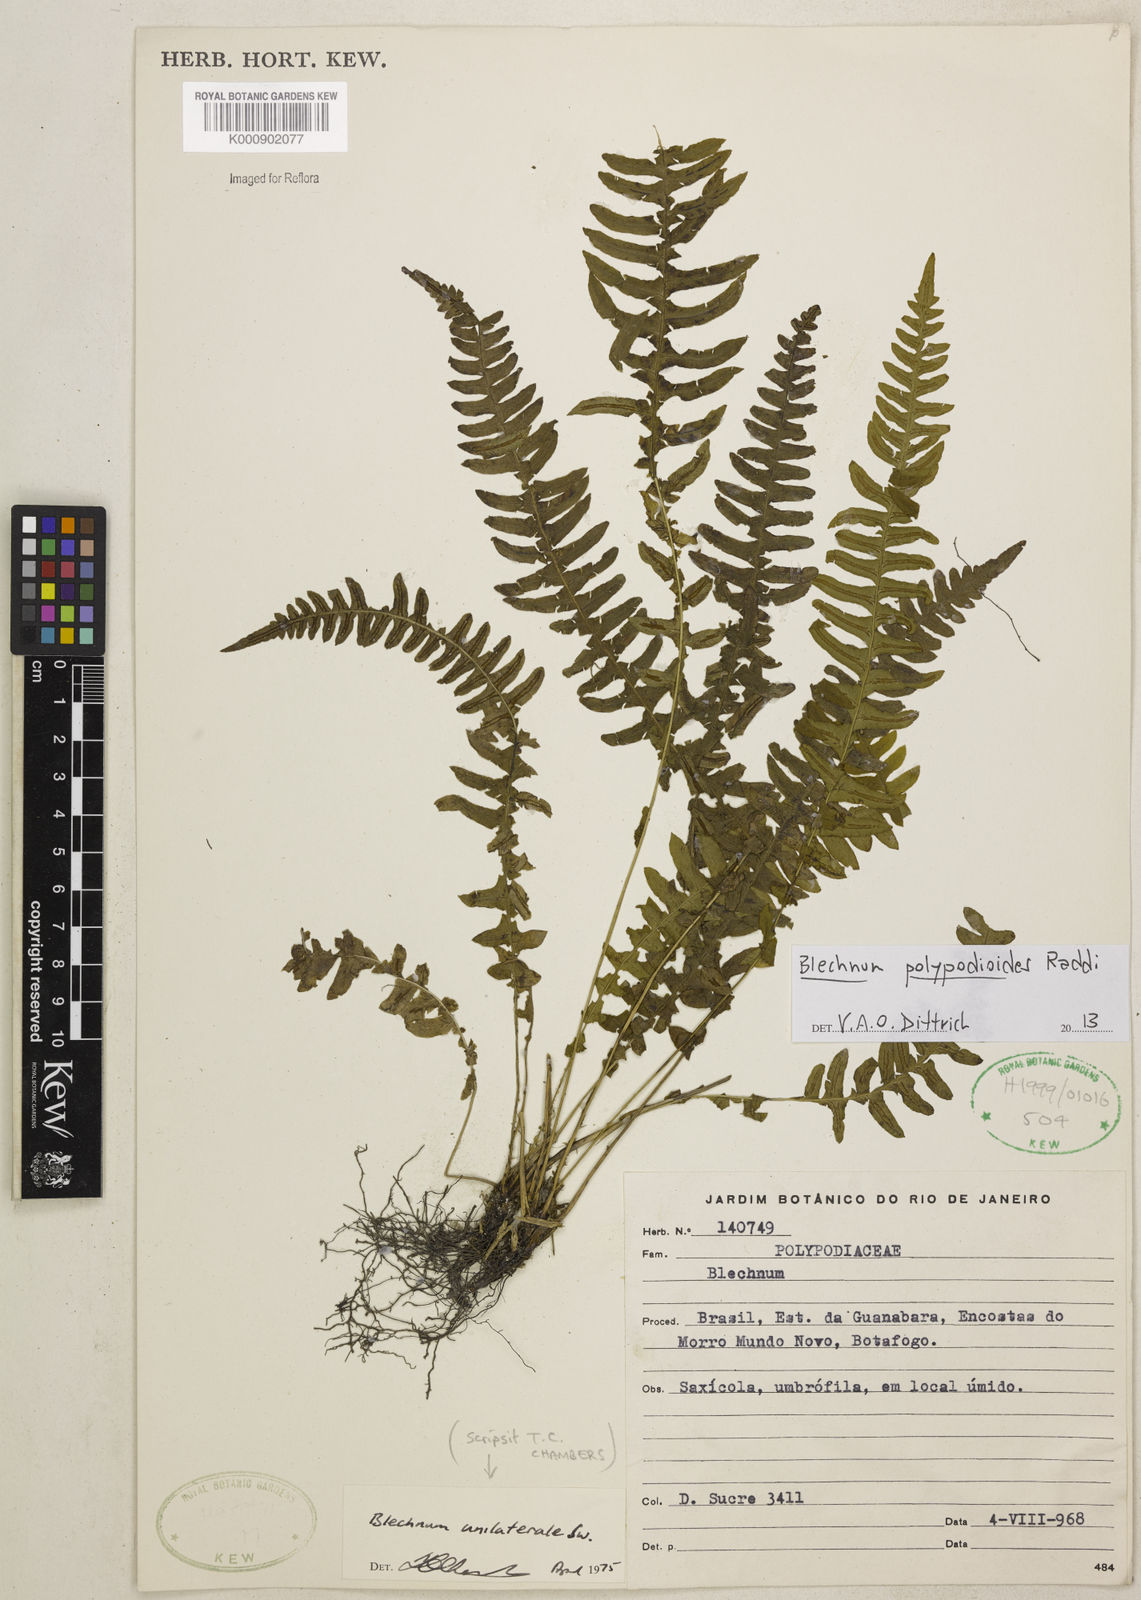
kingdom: Plantae
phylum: Tracheophyta
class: Polypodiopsida
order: Polypodiales
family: Blechnaceae
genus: Blechnum
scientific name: Blechnum polypodioides
